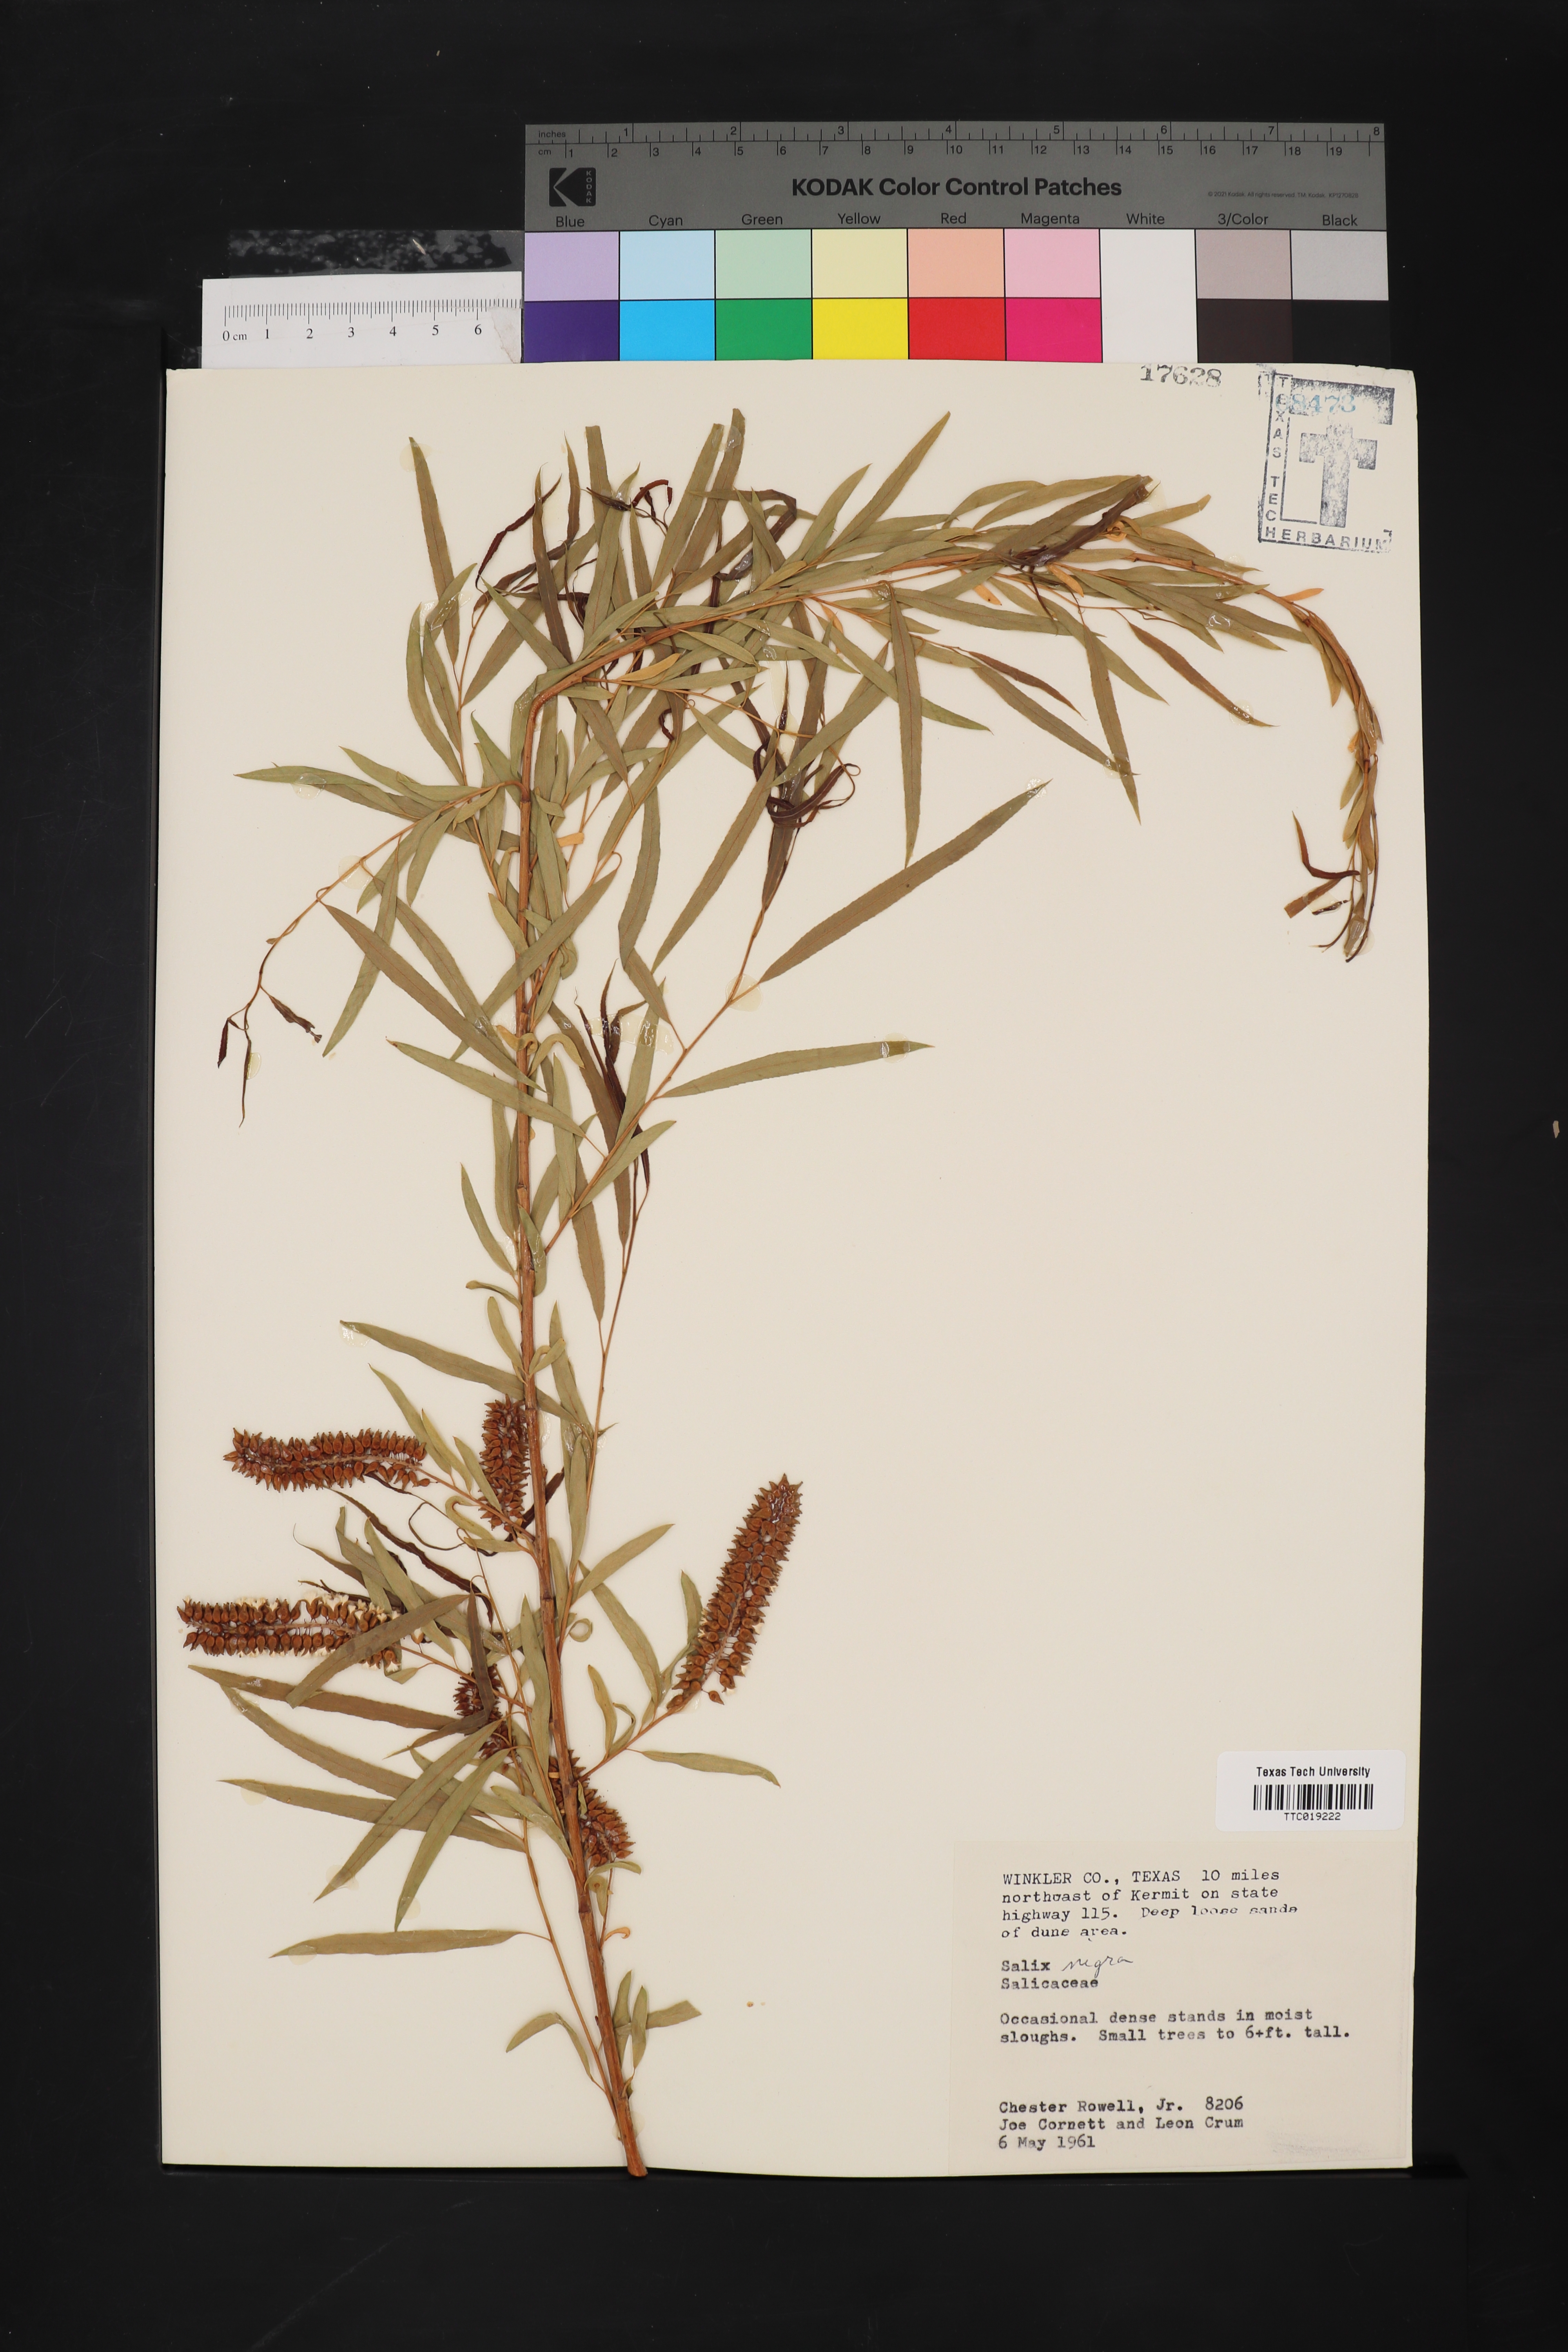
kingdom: Plantae
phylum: Tracheophyta
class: Magnoliopsida
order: Malpighiales
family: Salicaceae
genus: Salix
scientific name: Salix nigra
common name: Black willow
